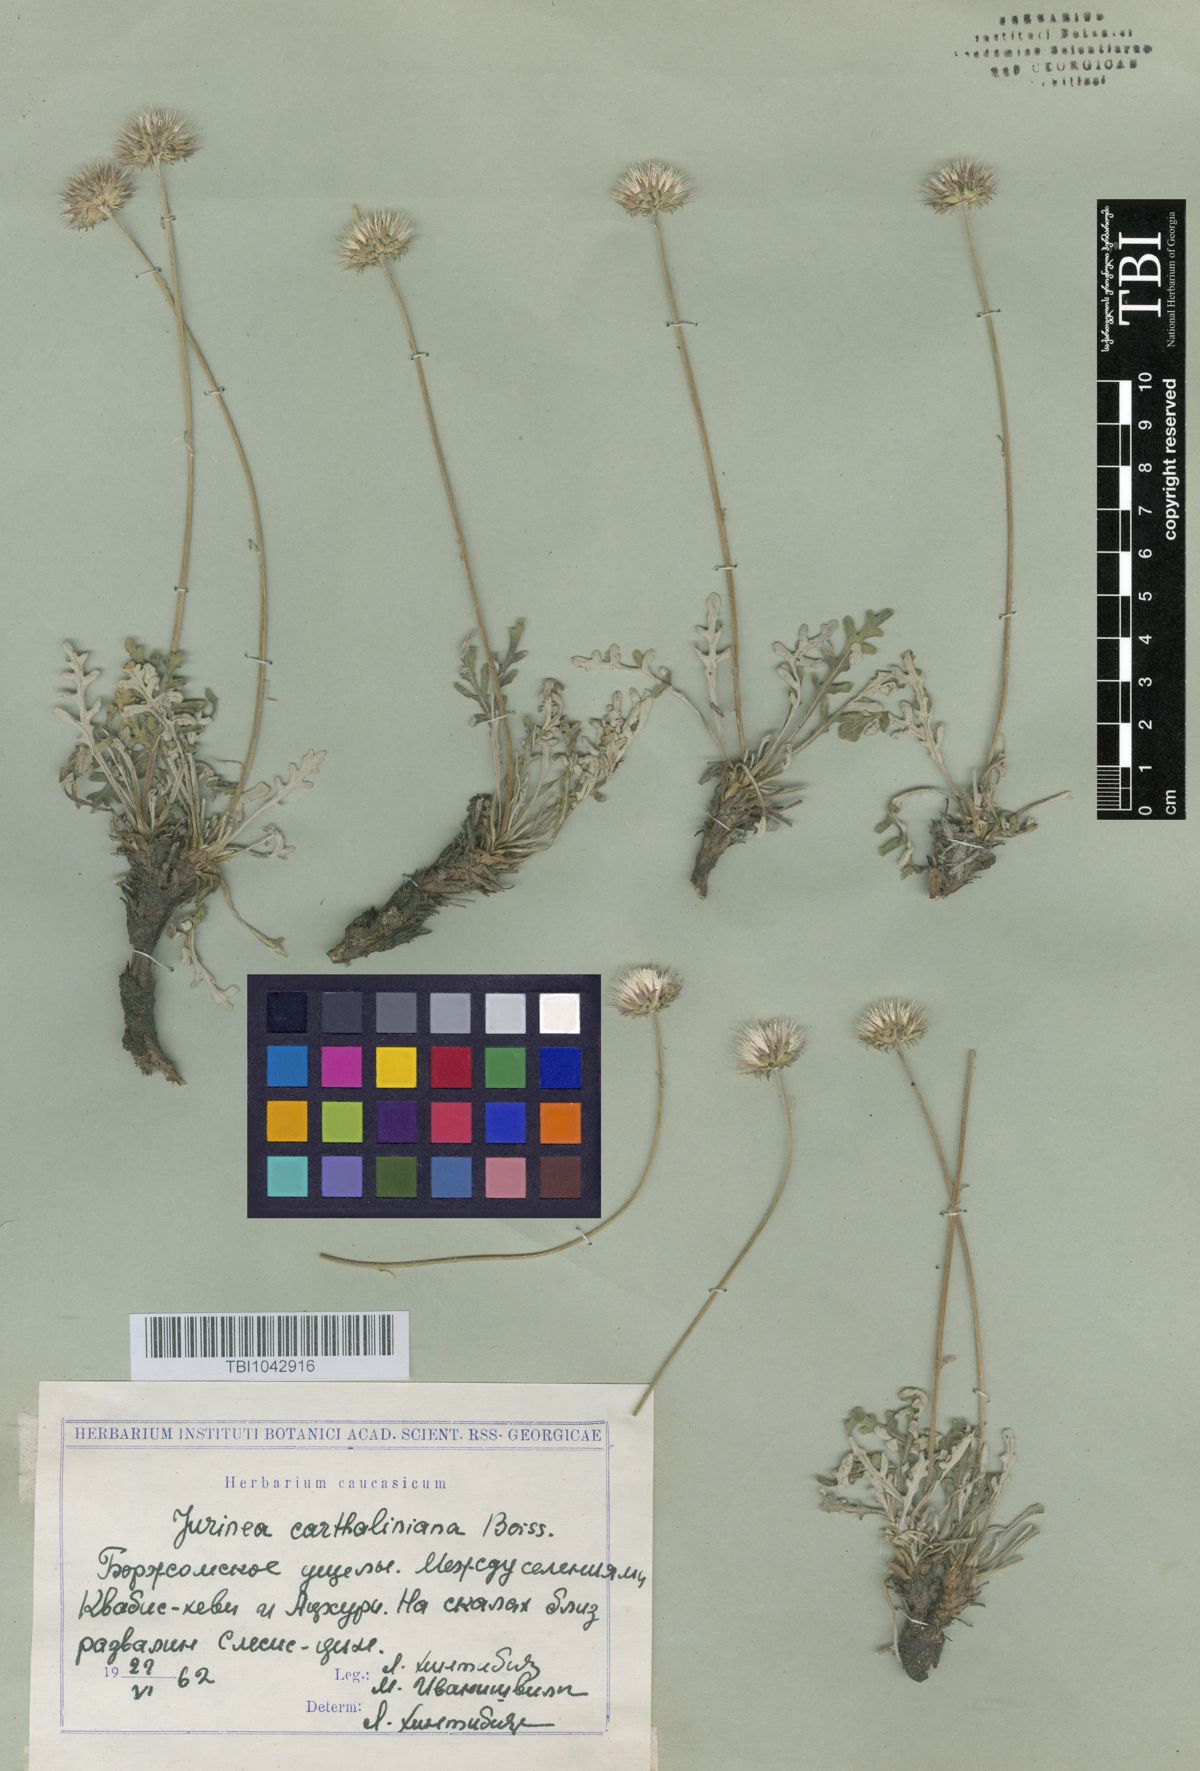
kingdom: Plantae
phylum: Tracheophyta
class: Magnoliopsida
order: Asterales
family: Asteraceae
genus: Jurinea
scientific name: Jurinea cartaliniana
